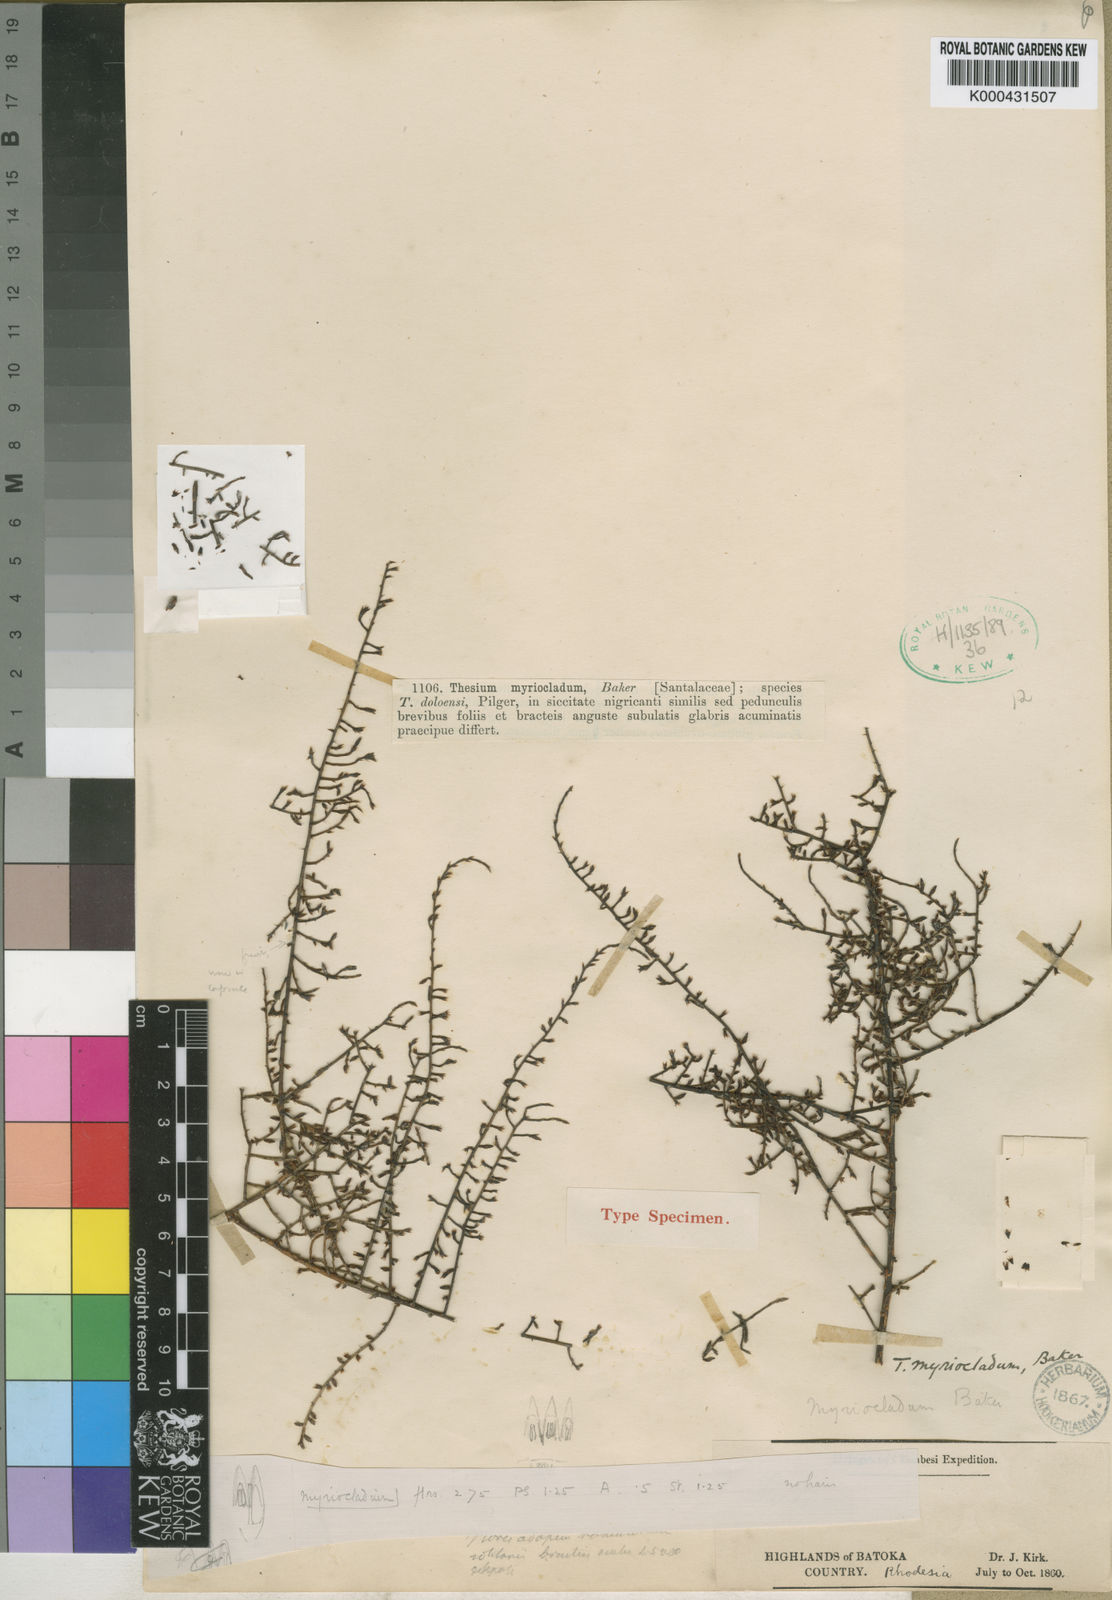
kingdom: Plantae
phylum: Tracheophyta
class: Magnoliopsida
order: Santalales
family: Thesiaceae
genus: Thesium
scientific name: Thesium
